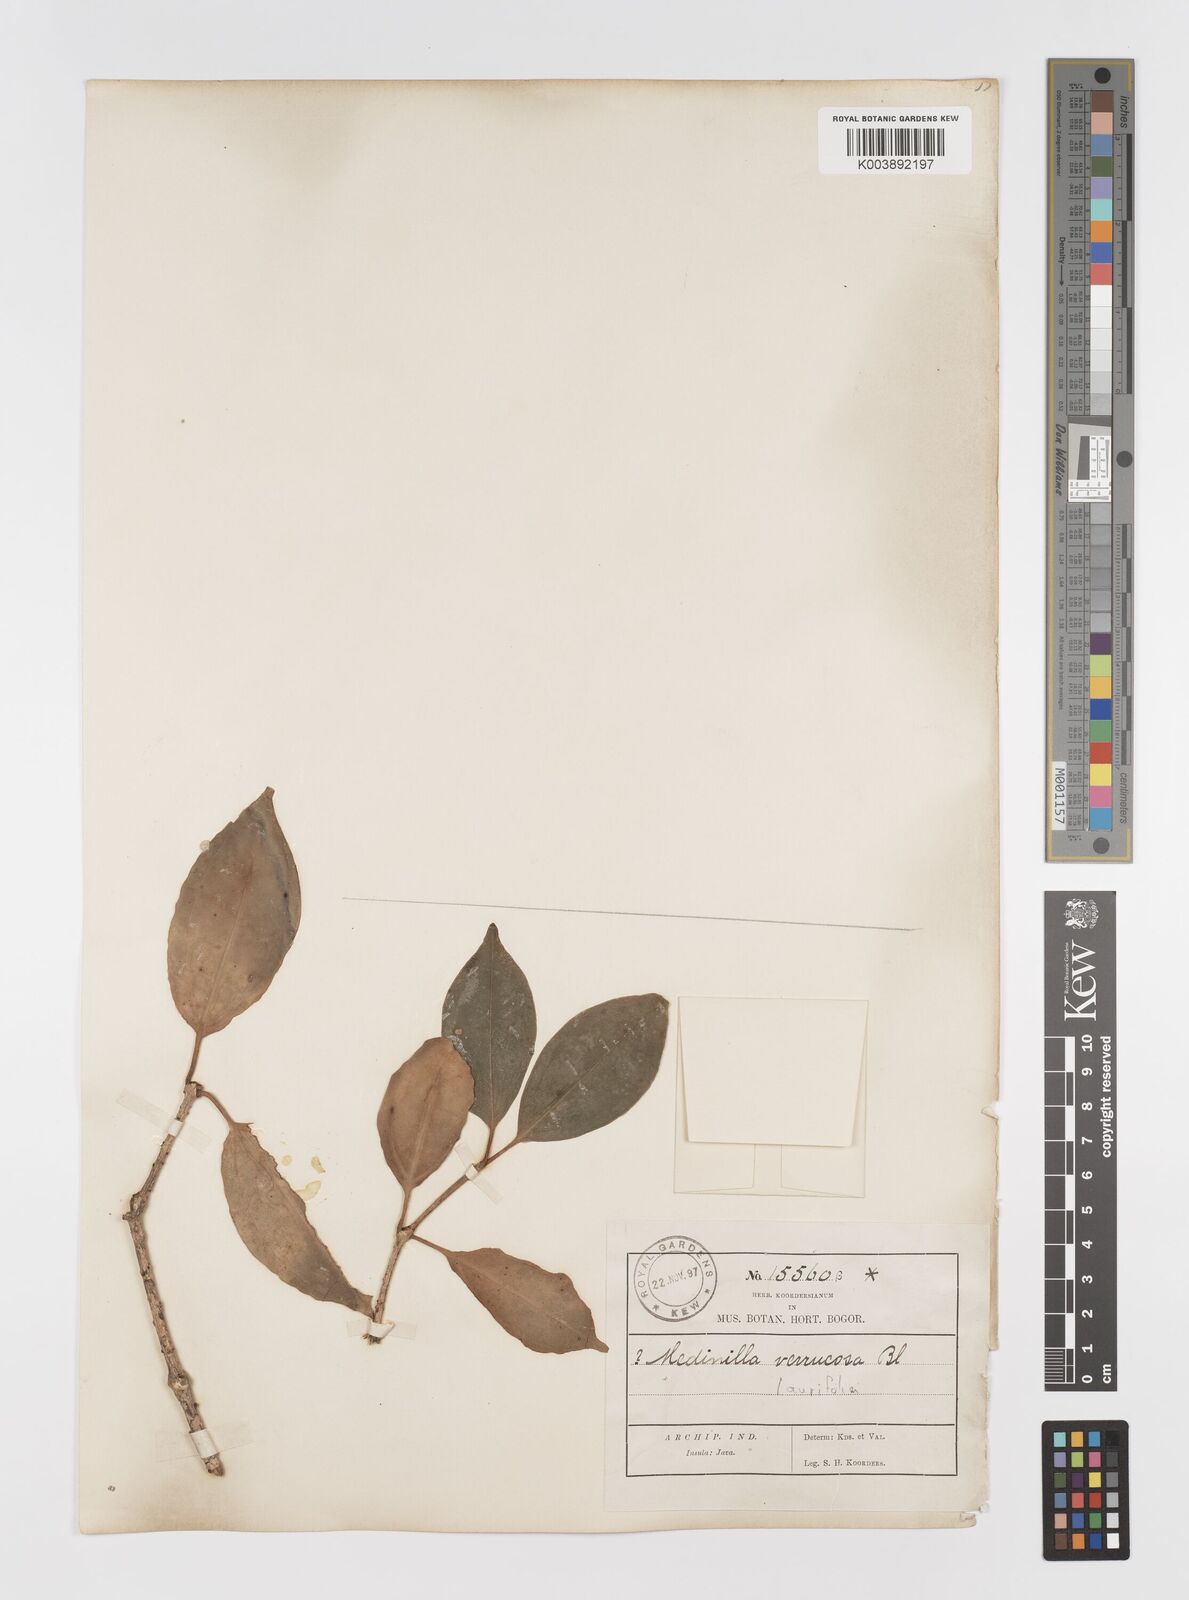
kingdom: Plantae
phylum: Tracheophyta
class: Magnoliopsida
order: Myrtales
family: Melastomataceae
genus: Medinilla
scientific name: Medinilla laurifolia
